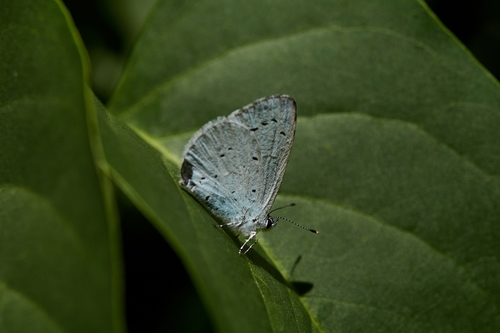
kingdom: Animalia
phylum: Arthropoda
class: Insecta
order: Lepidoptera
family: Lycaenidae
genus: Celastrina
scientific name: Celastrina argiolus
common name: Holly blue
